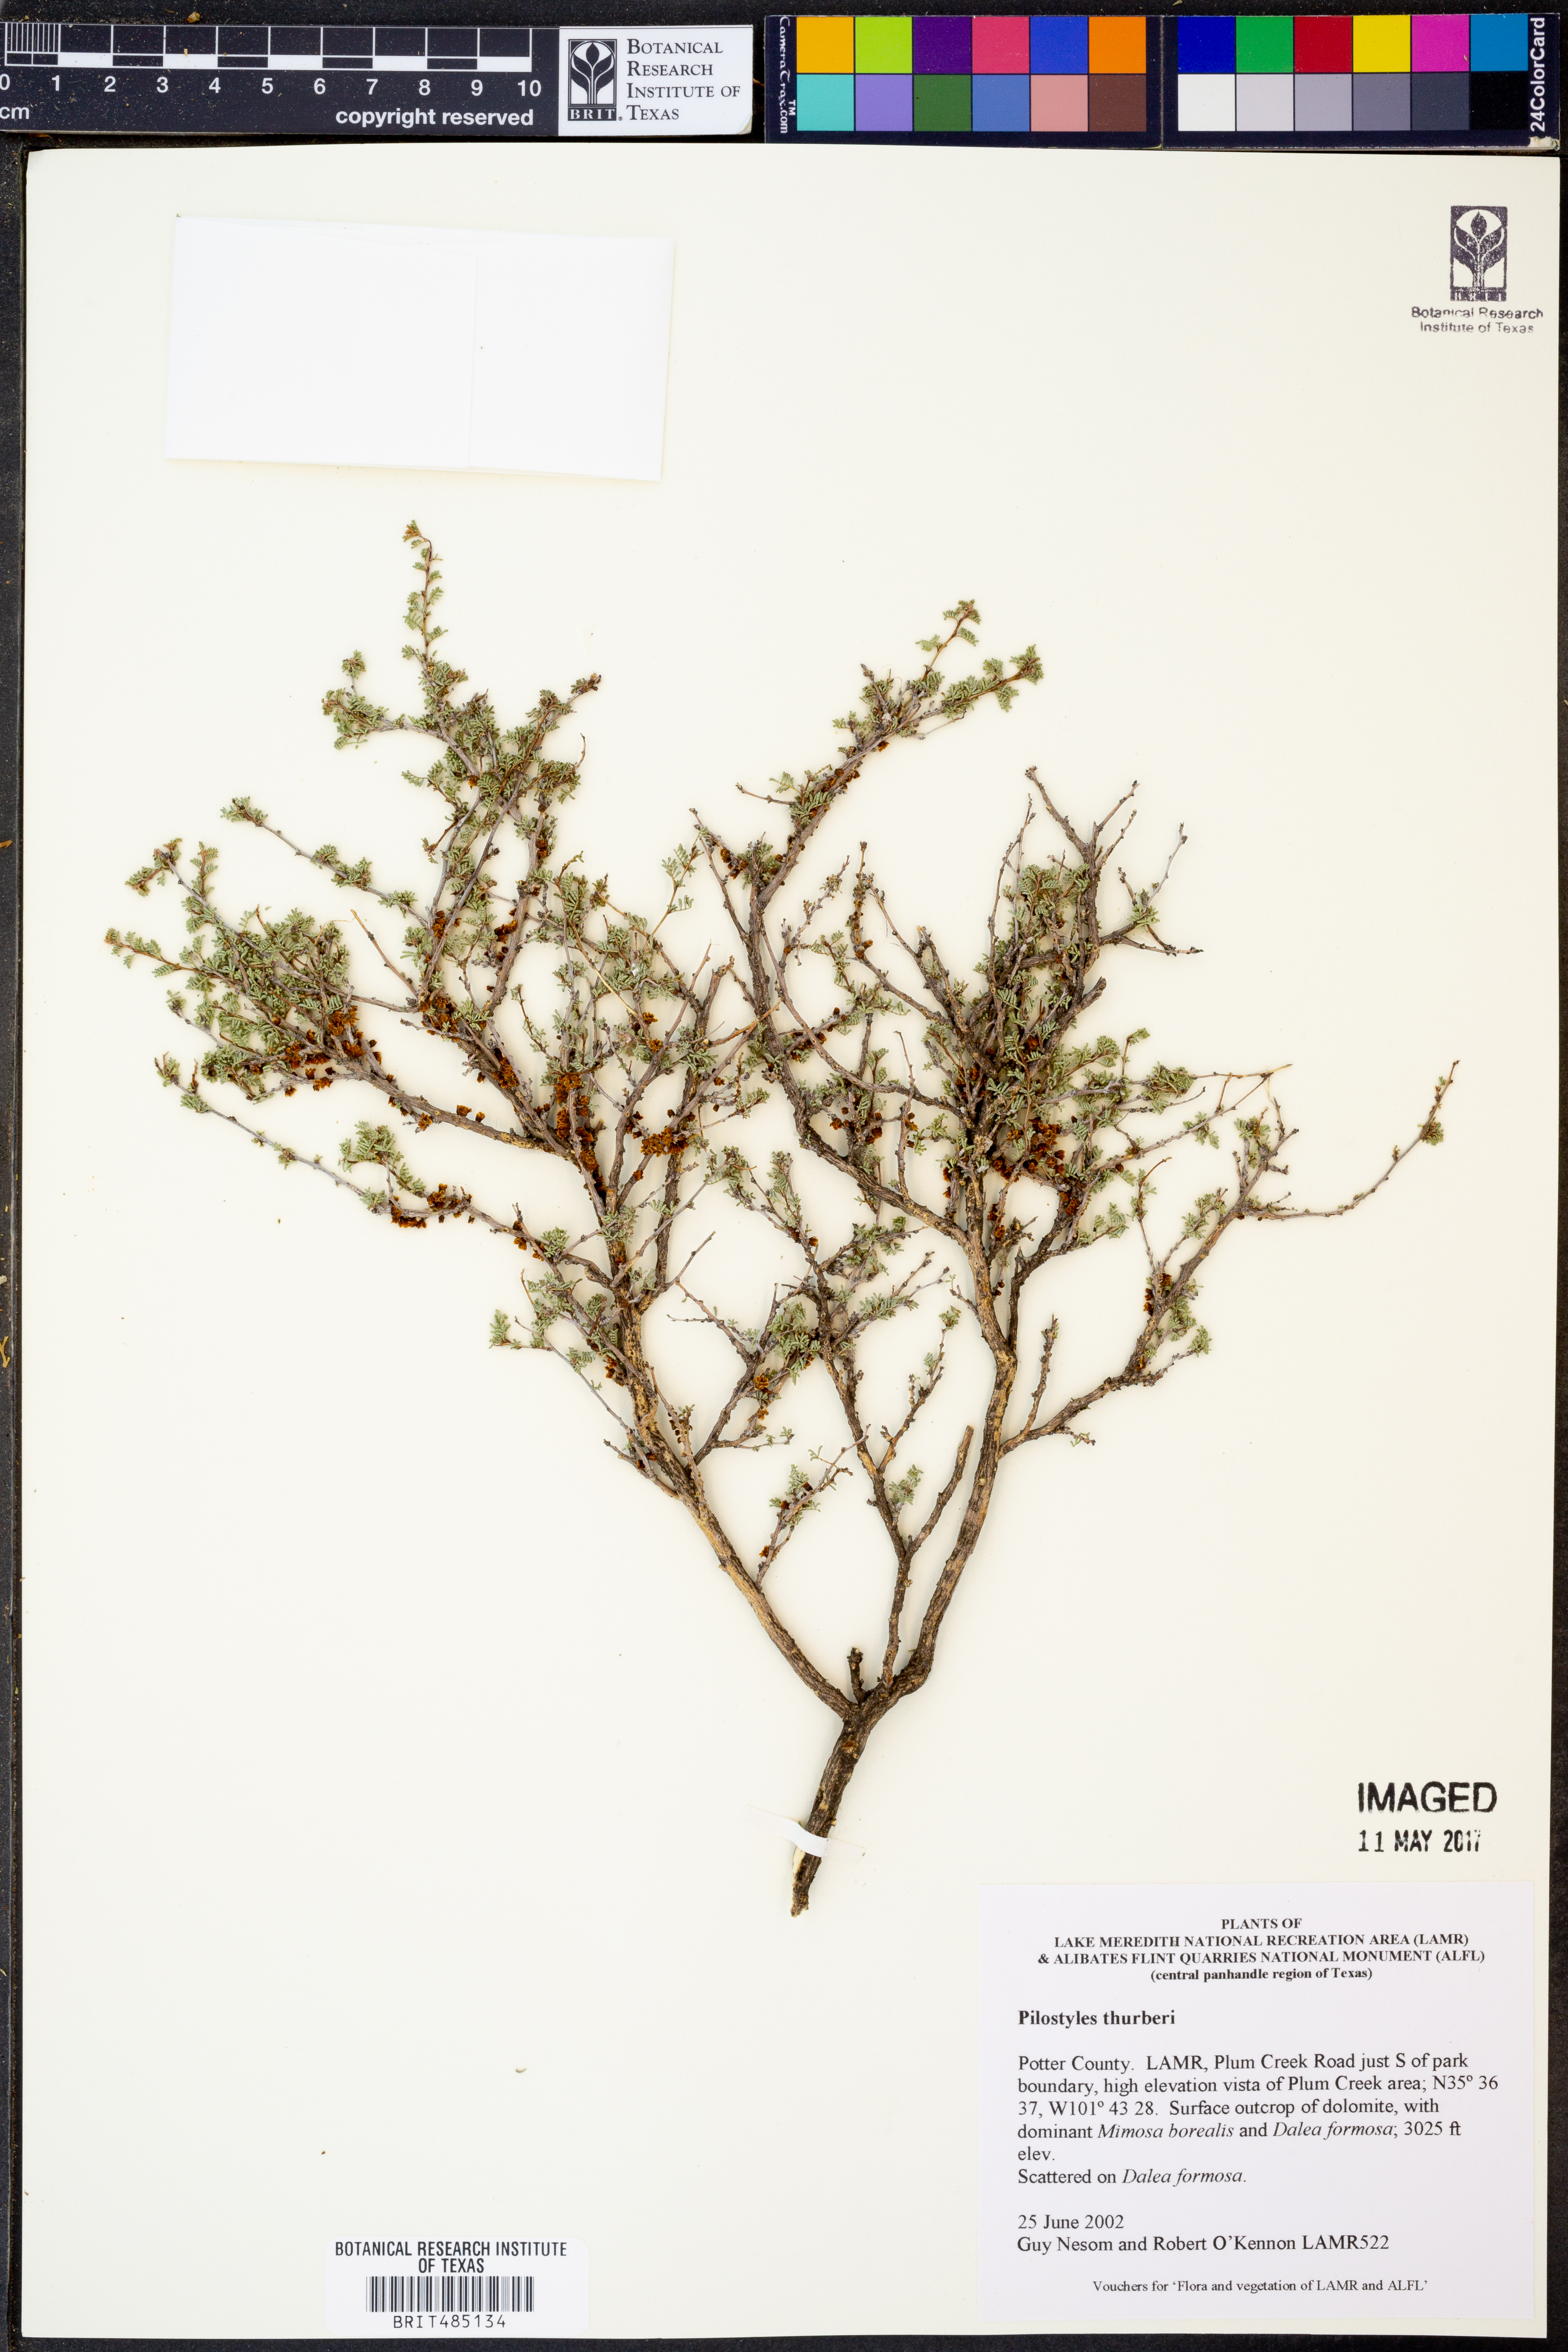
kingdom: Plantae
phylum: Tracheophyta
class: Magnoliopsida
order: Cucurbitales
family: Apodanthaceae
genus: Pilostyles
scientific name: Pilostyles thurberi
